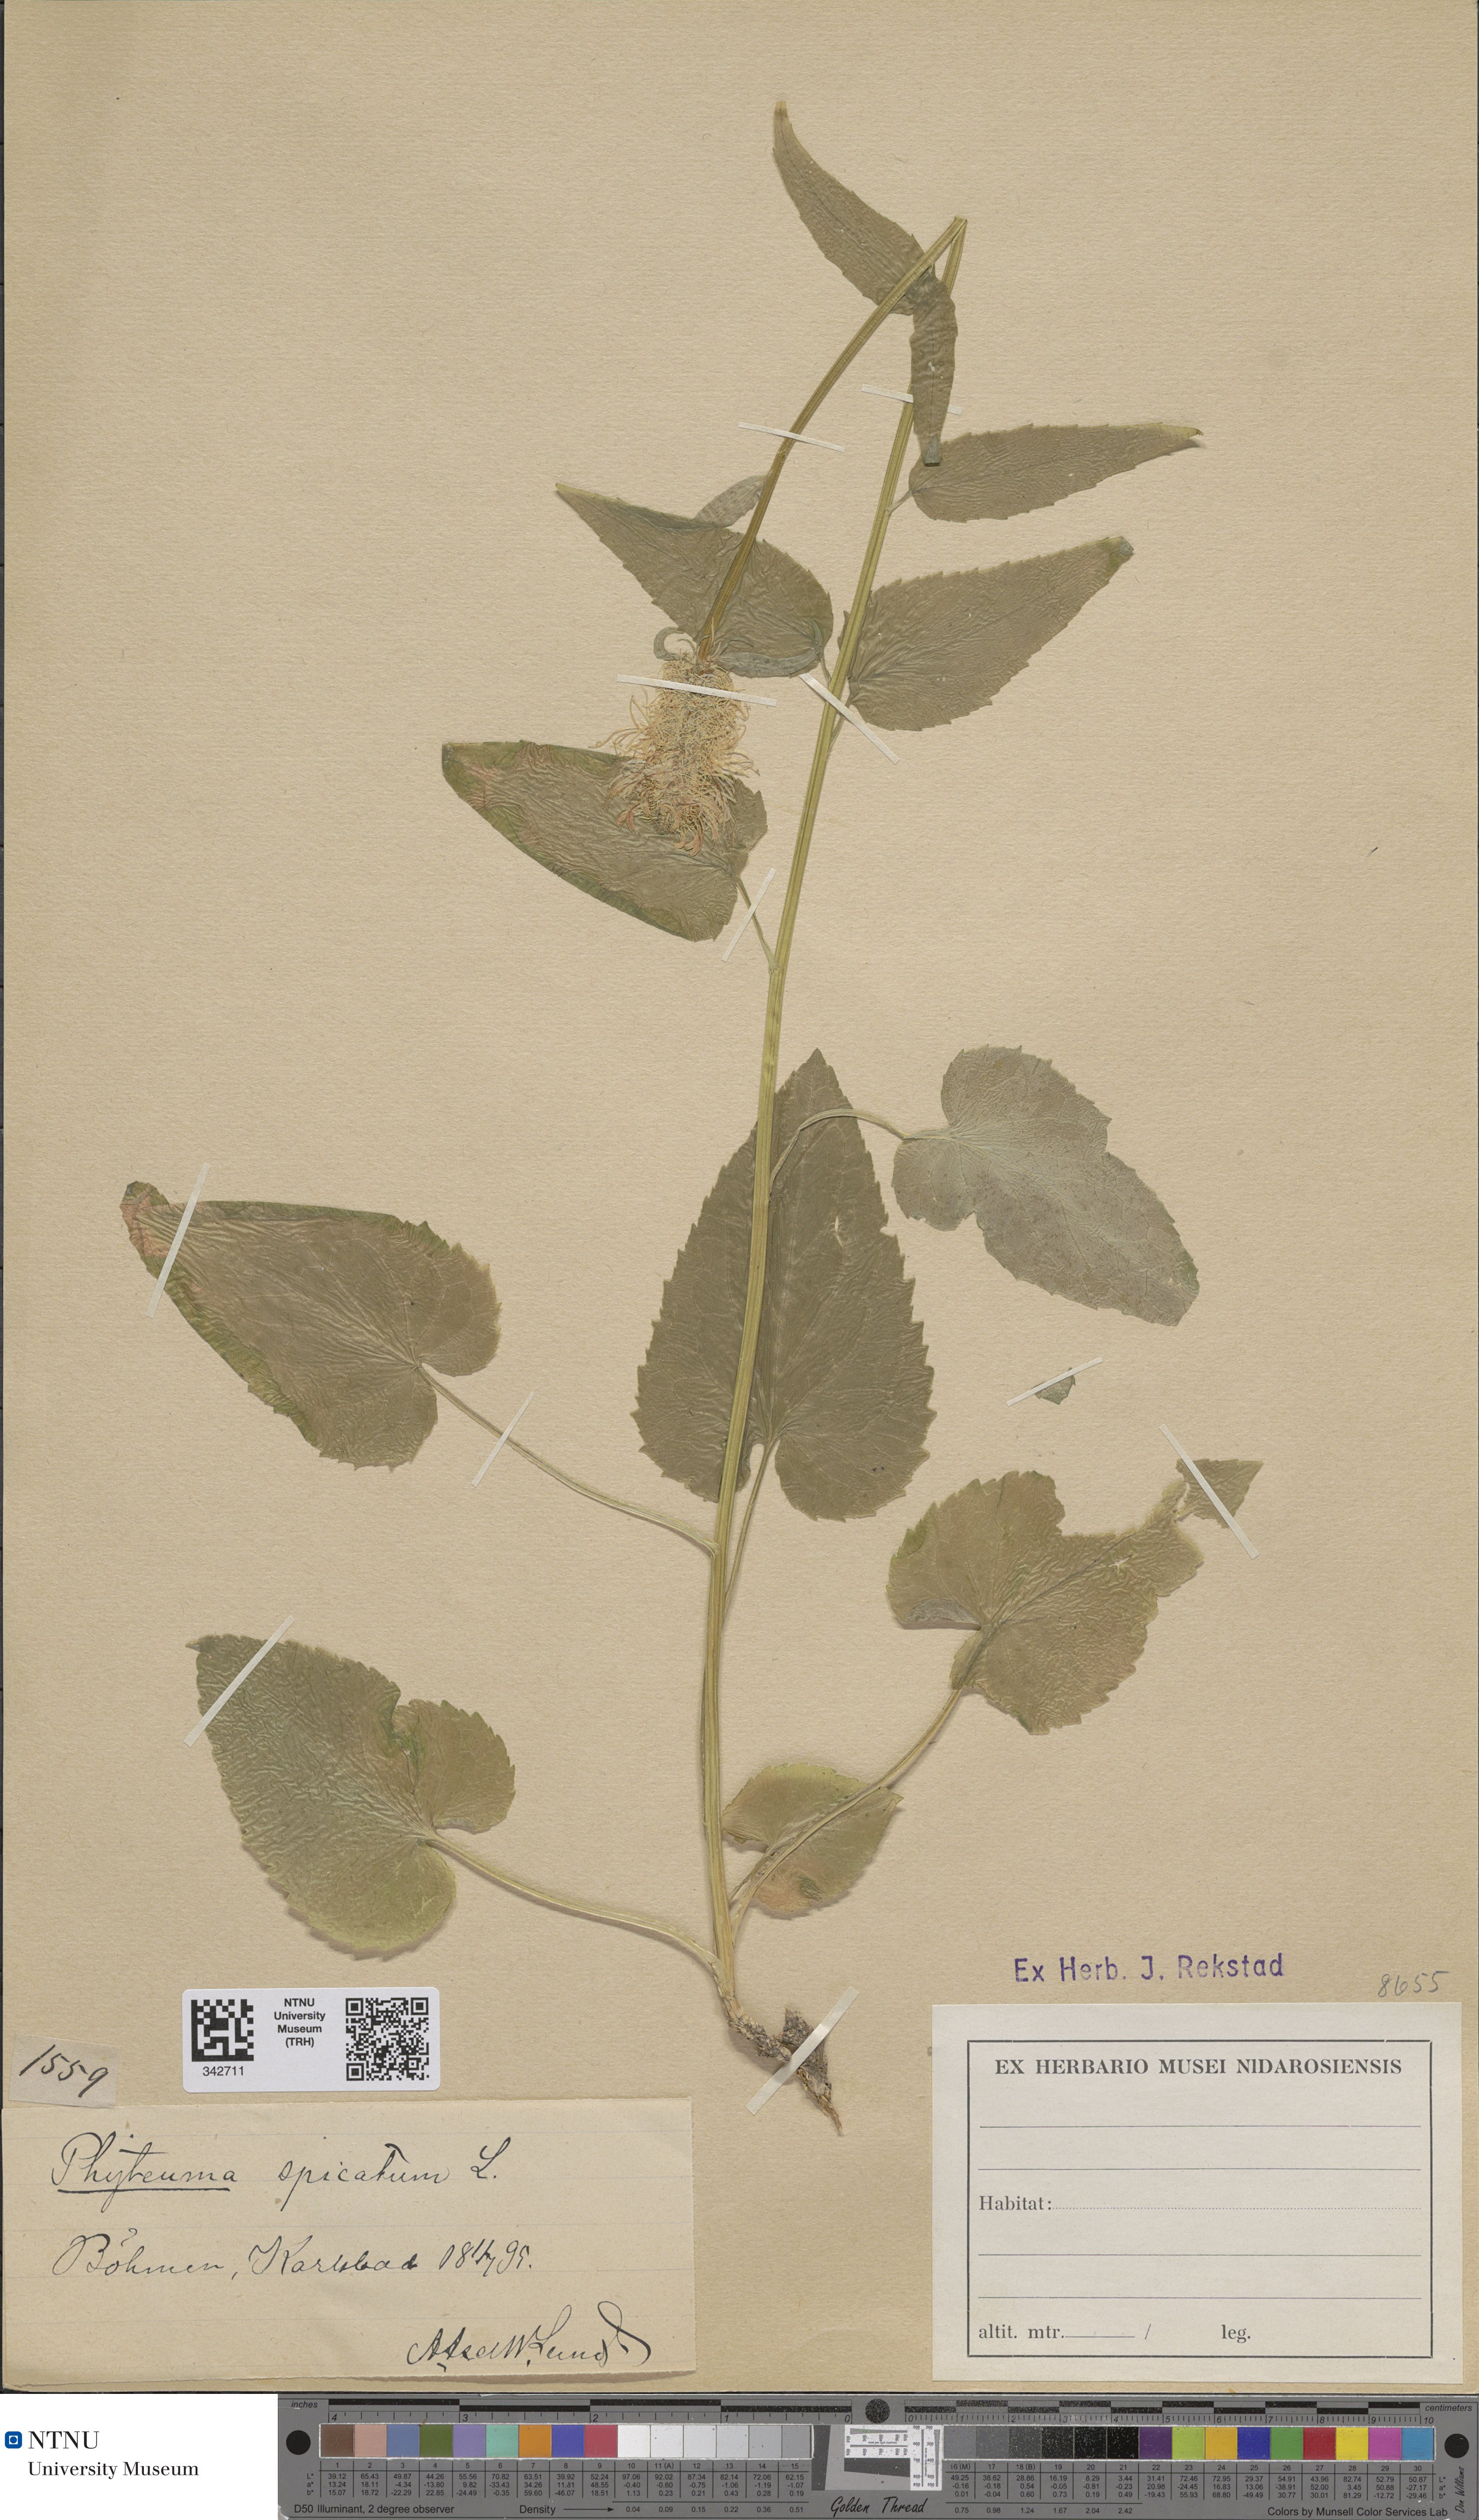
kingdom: Plantae
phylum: Tracheophyta
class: Magnoliopsida
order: Asterales
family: Campanulaceae
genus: Phyteuma
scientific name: Phyteuma spicatum
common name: Spiked rampion
